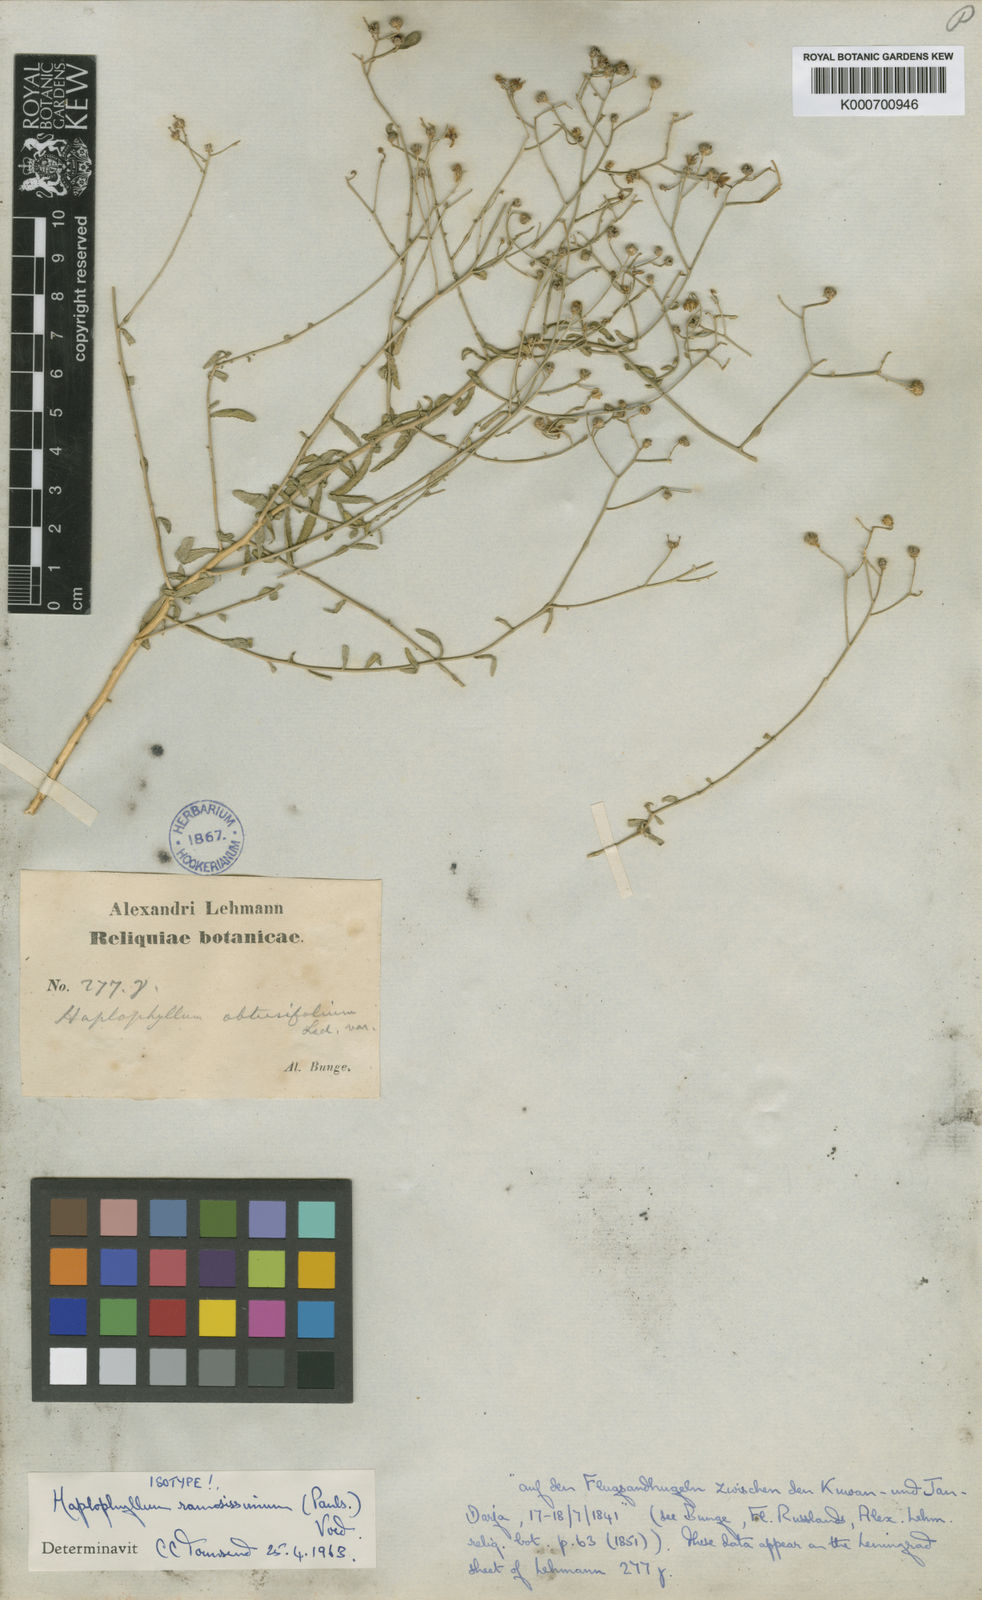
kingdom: Plantae
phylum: Tracheophyta
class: Magnoliopsida
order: Sapindales
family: Rutaceae
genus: Haplophyllum
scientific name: Haplophyllum ramosissimum
